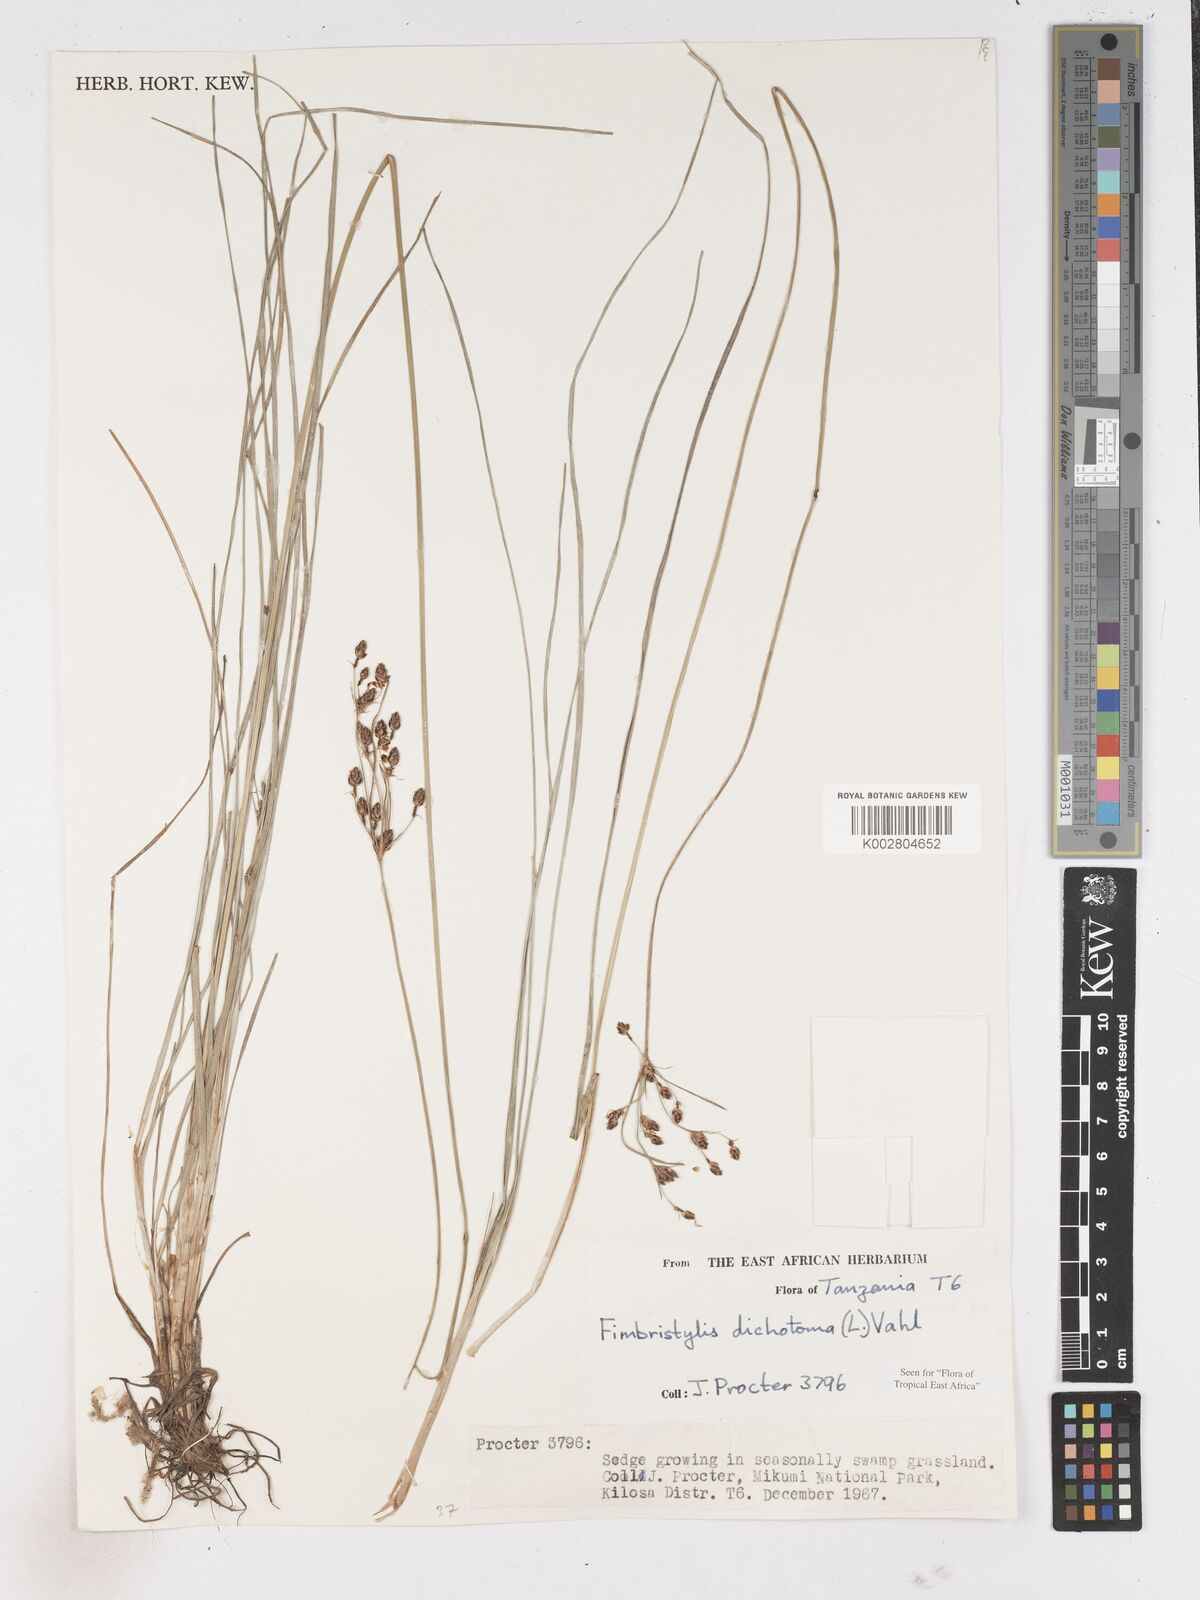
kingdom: Plantae
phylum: Tracheophyta
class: Liliopsida
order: Poales
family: Cyperaceae
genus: Fimbristylis
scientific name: Fimbristylis dichotoma
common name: Forked fimbry
